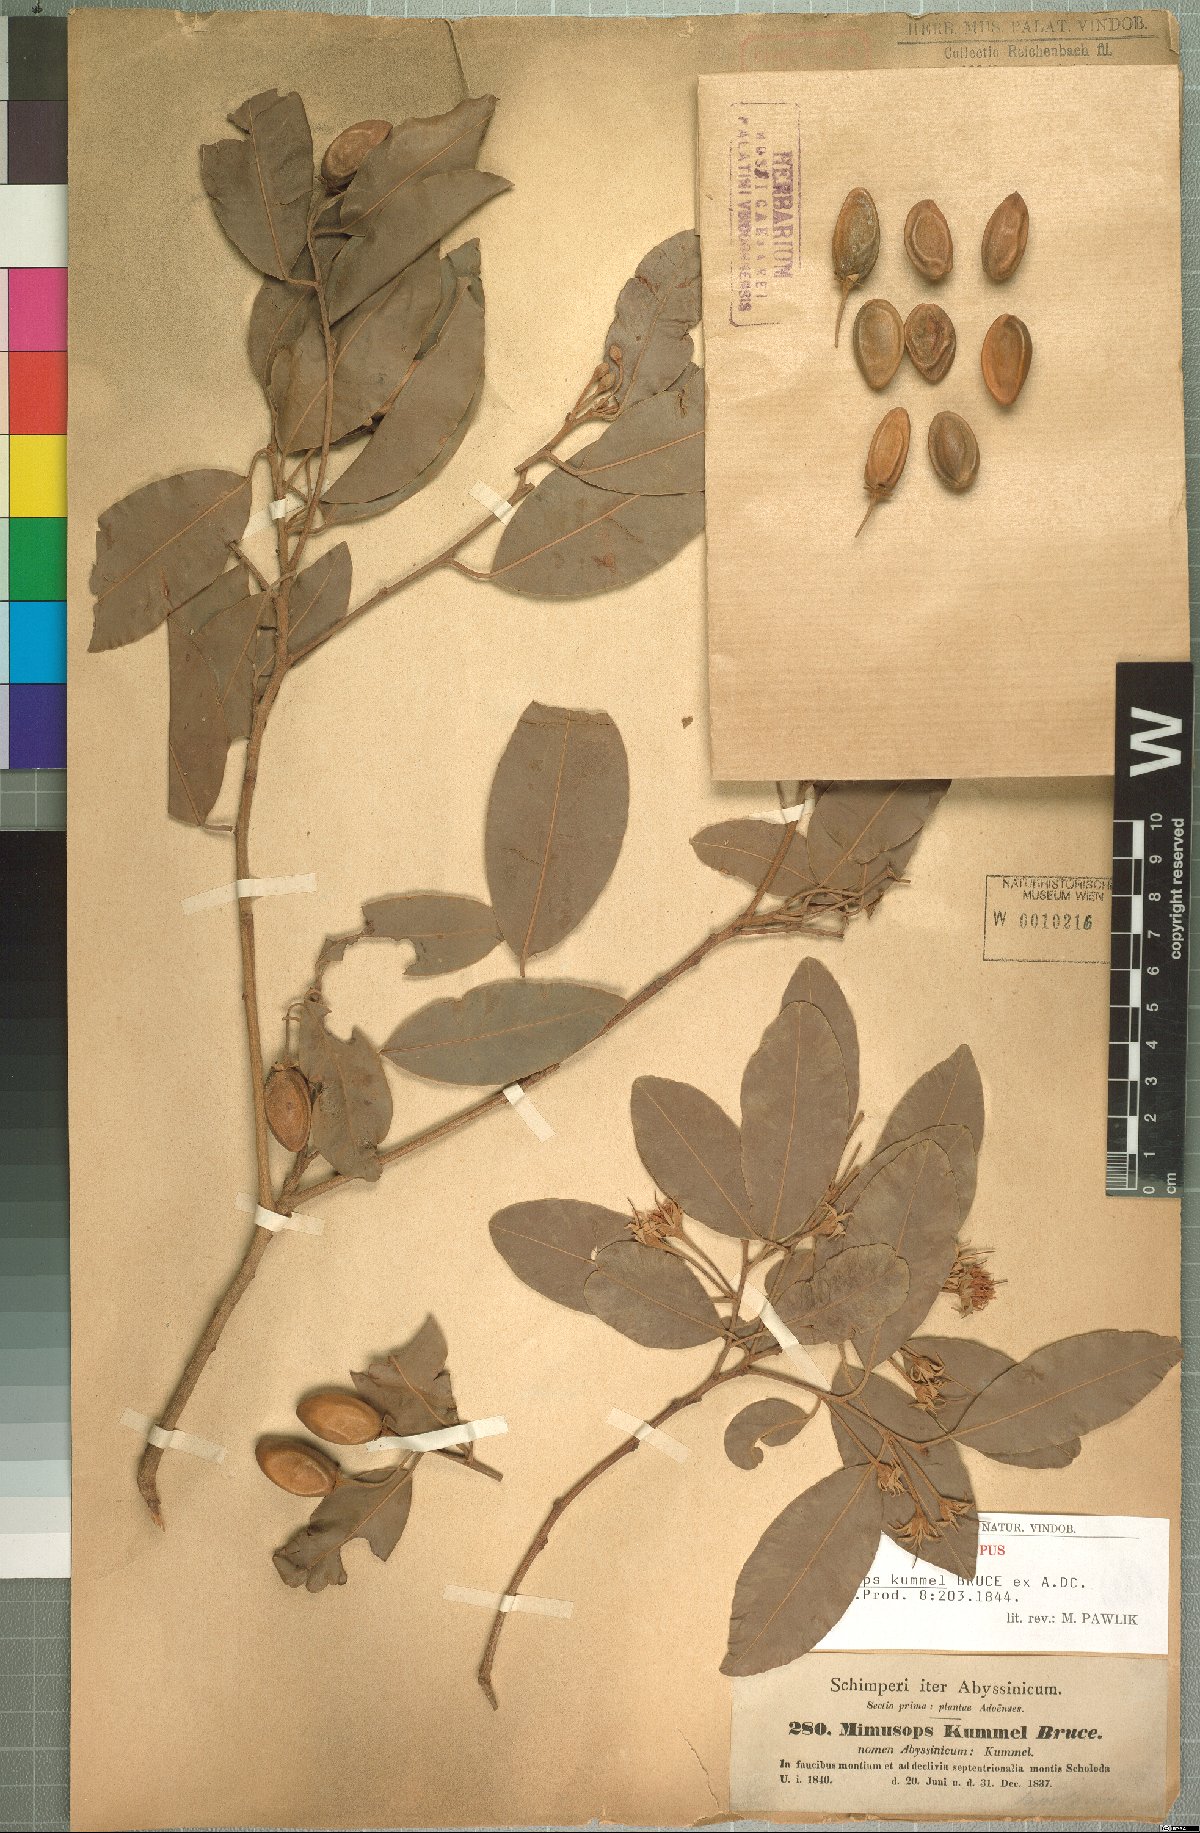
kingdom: Plantae
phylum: Tracheophyta
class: Magnoliopsida
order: Ericales
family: Sapotaceae
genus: Mimusops
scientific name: Mimusops kummel
